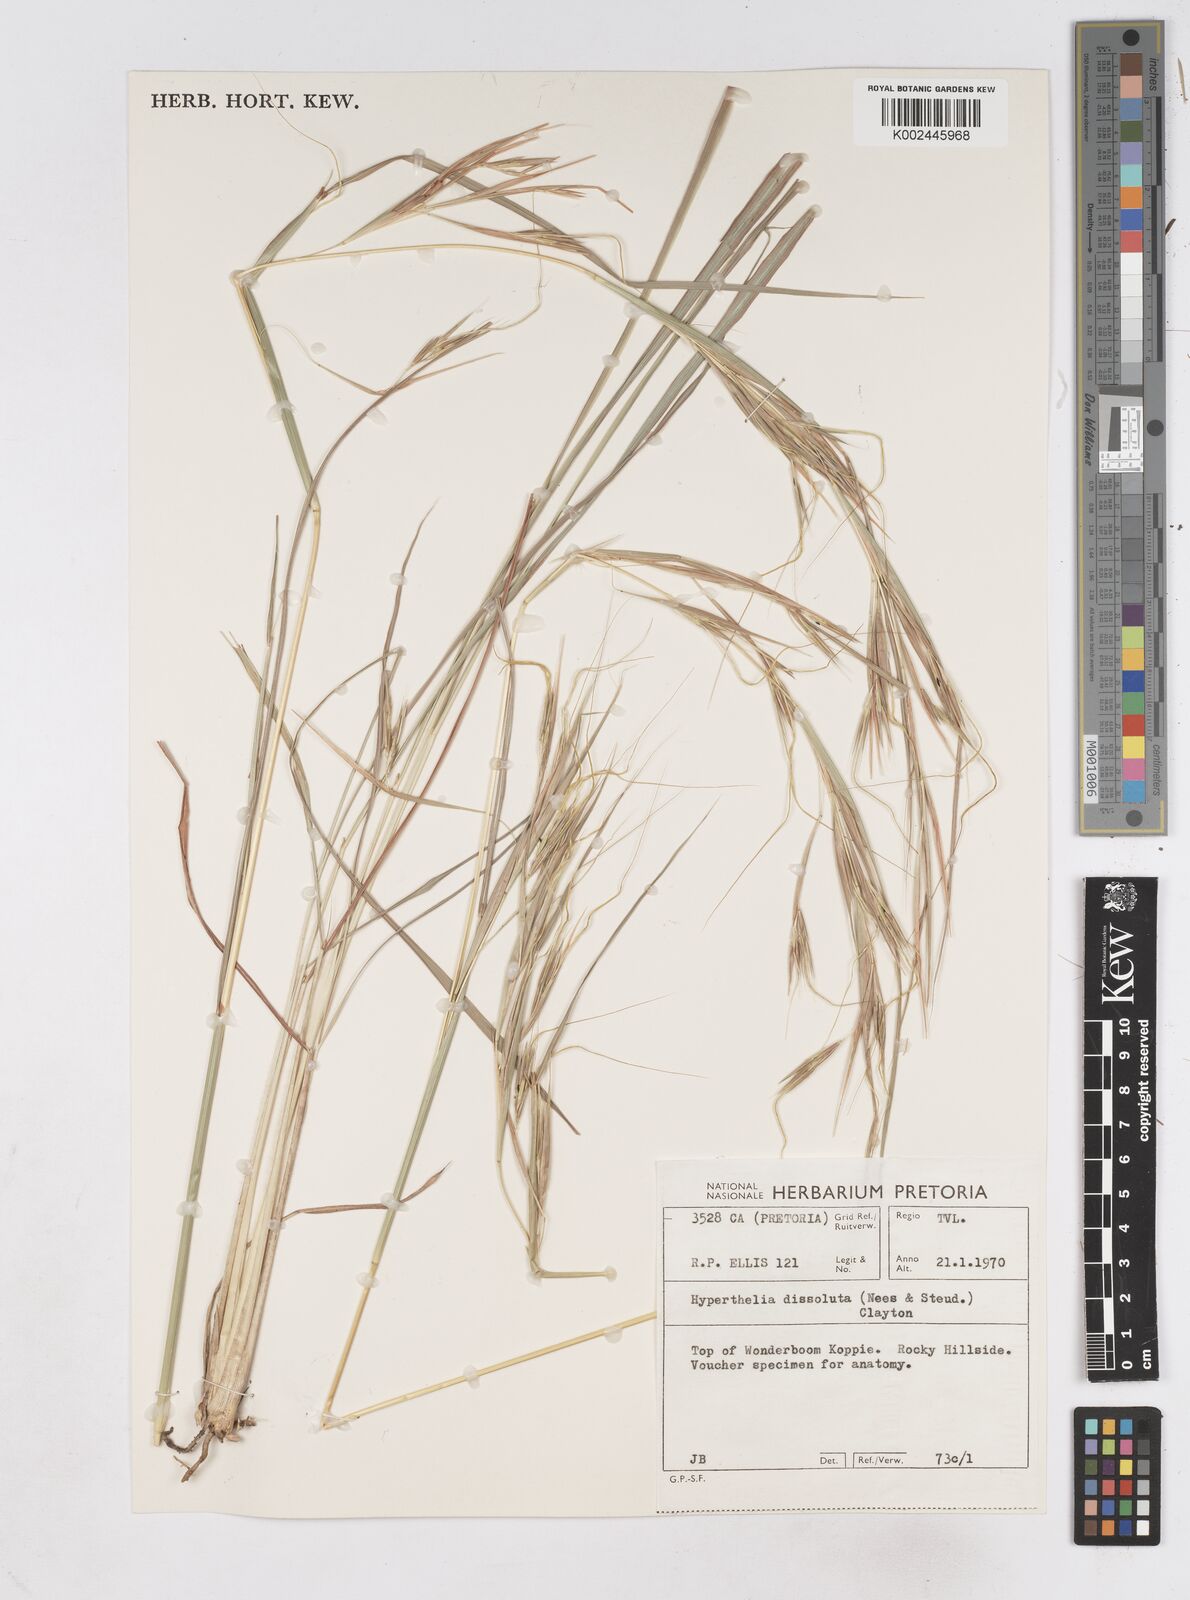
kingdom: Plantae
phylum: Tracheophyta
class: Liliopsida
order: Poales
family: Poaceae
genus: Hyperthelia
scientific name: Hyperthelia dissoluta
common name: Yellow thatching grass
